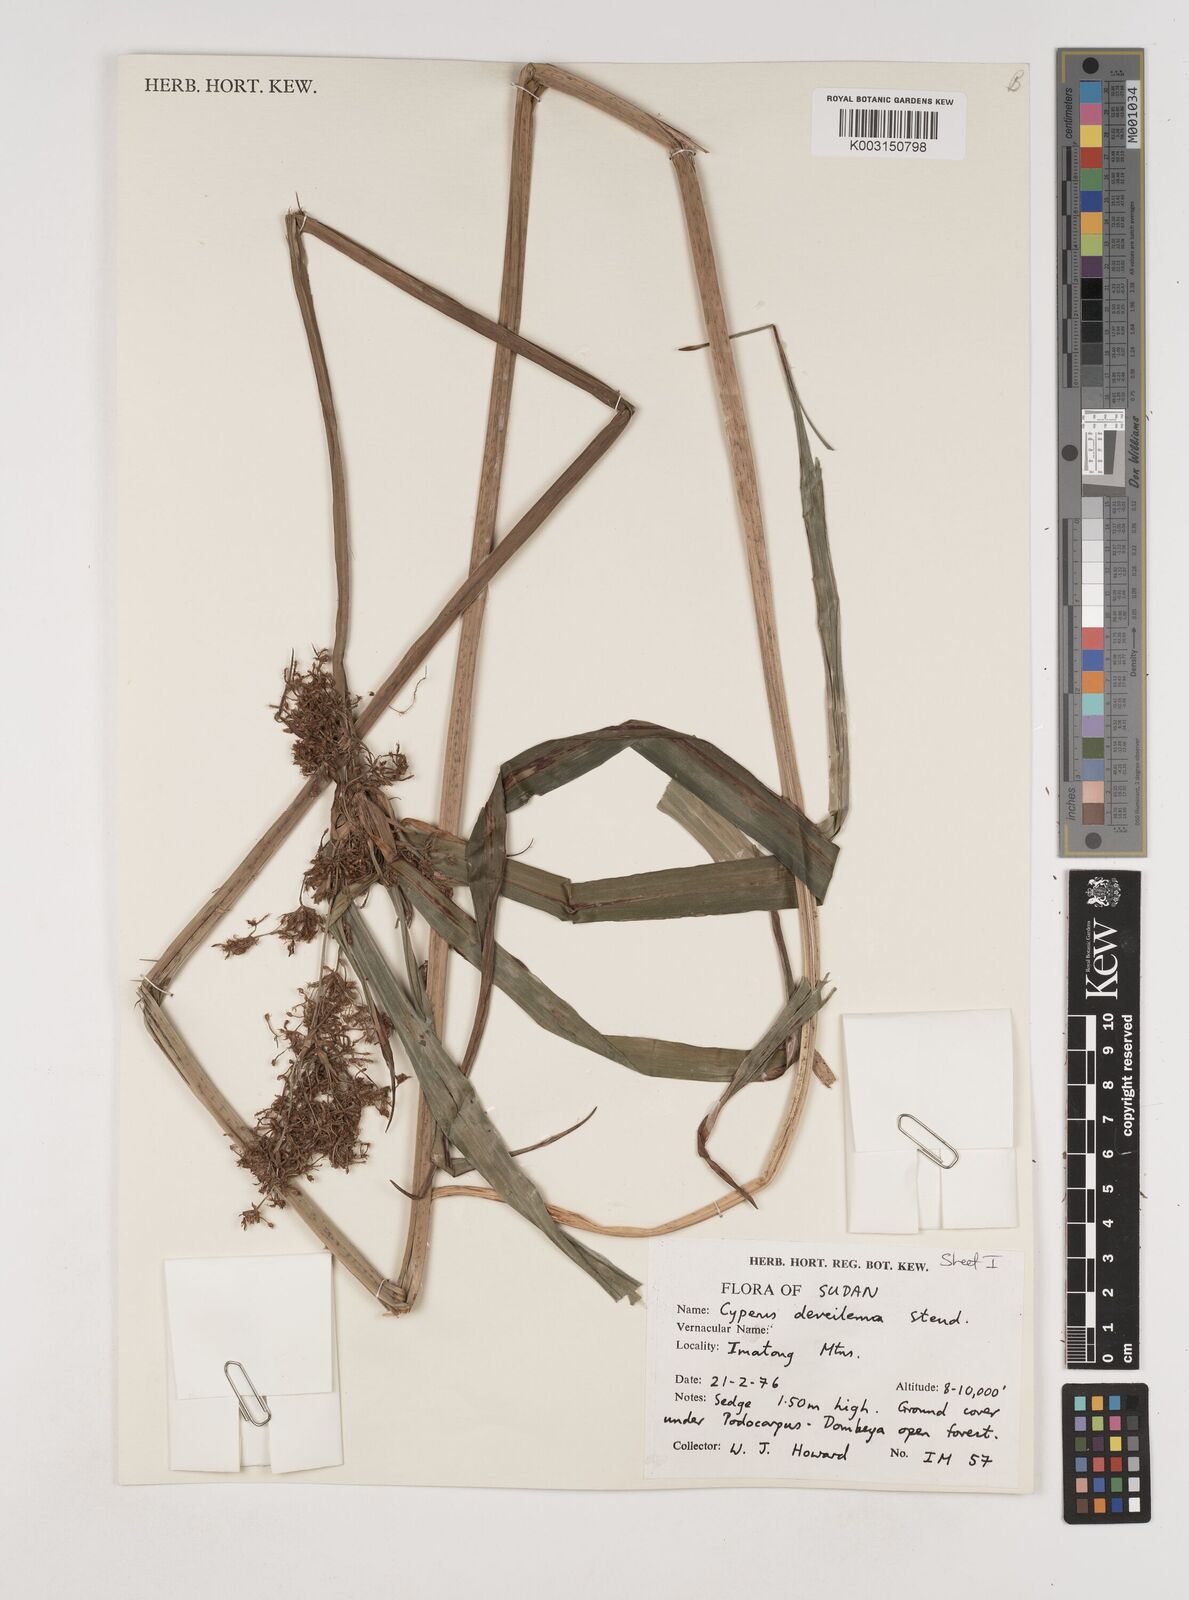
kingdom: Plantae
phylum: Tracheophyta
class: Liliopsida
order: Poales
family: Cyperaceae
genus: Cyperus
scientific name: Cyperus derreilema
